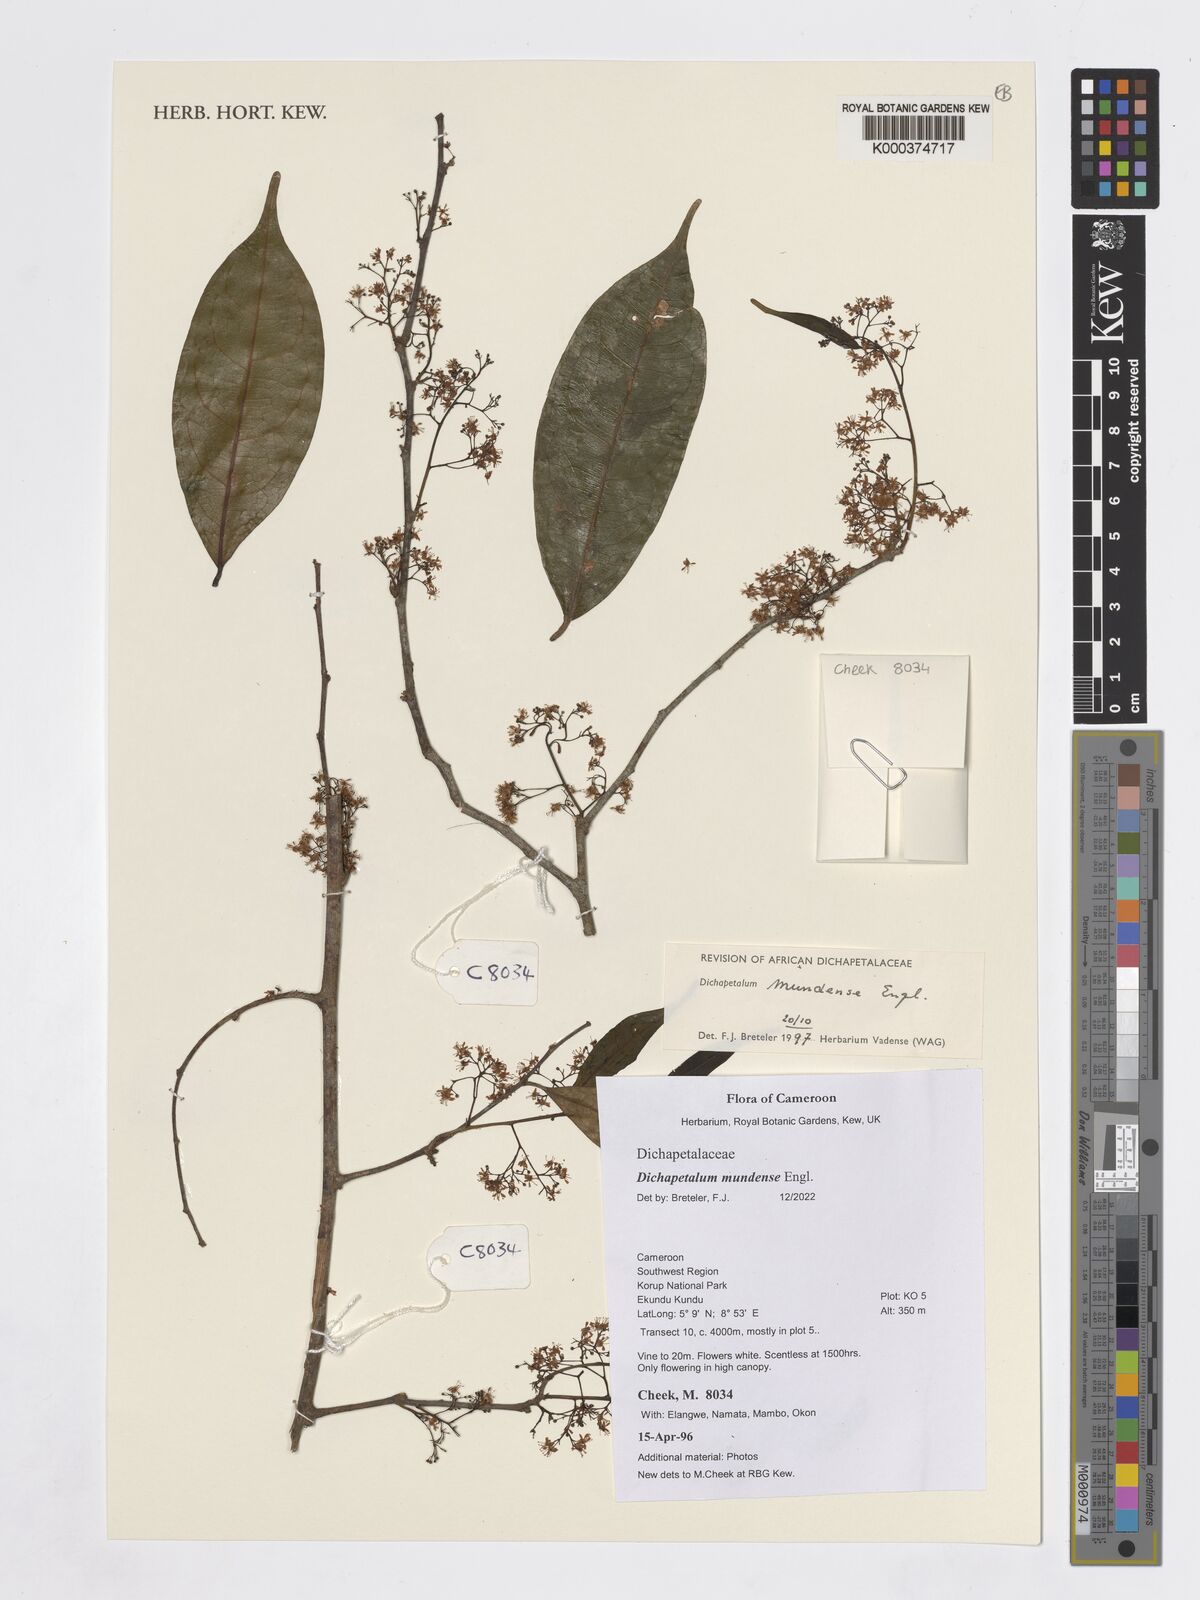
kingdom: Plantae
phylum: Tracheophyta
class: Magnoliopsida
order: Malpighiales
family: Dichapetalaceae
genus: Dichapetalum
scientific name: Dichapetalum mundense
